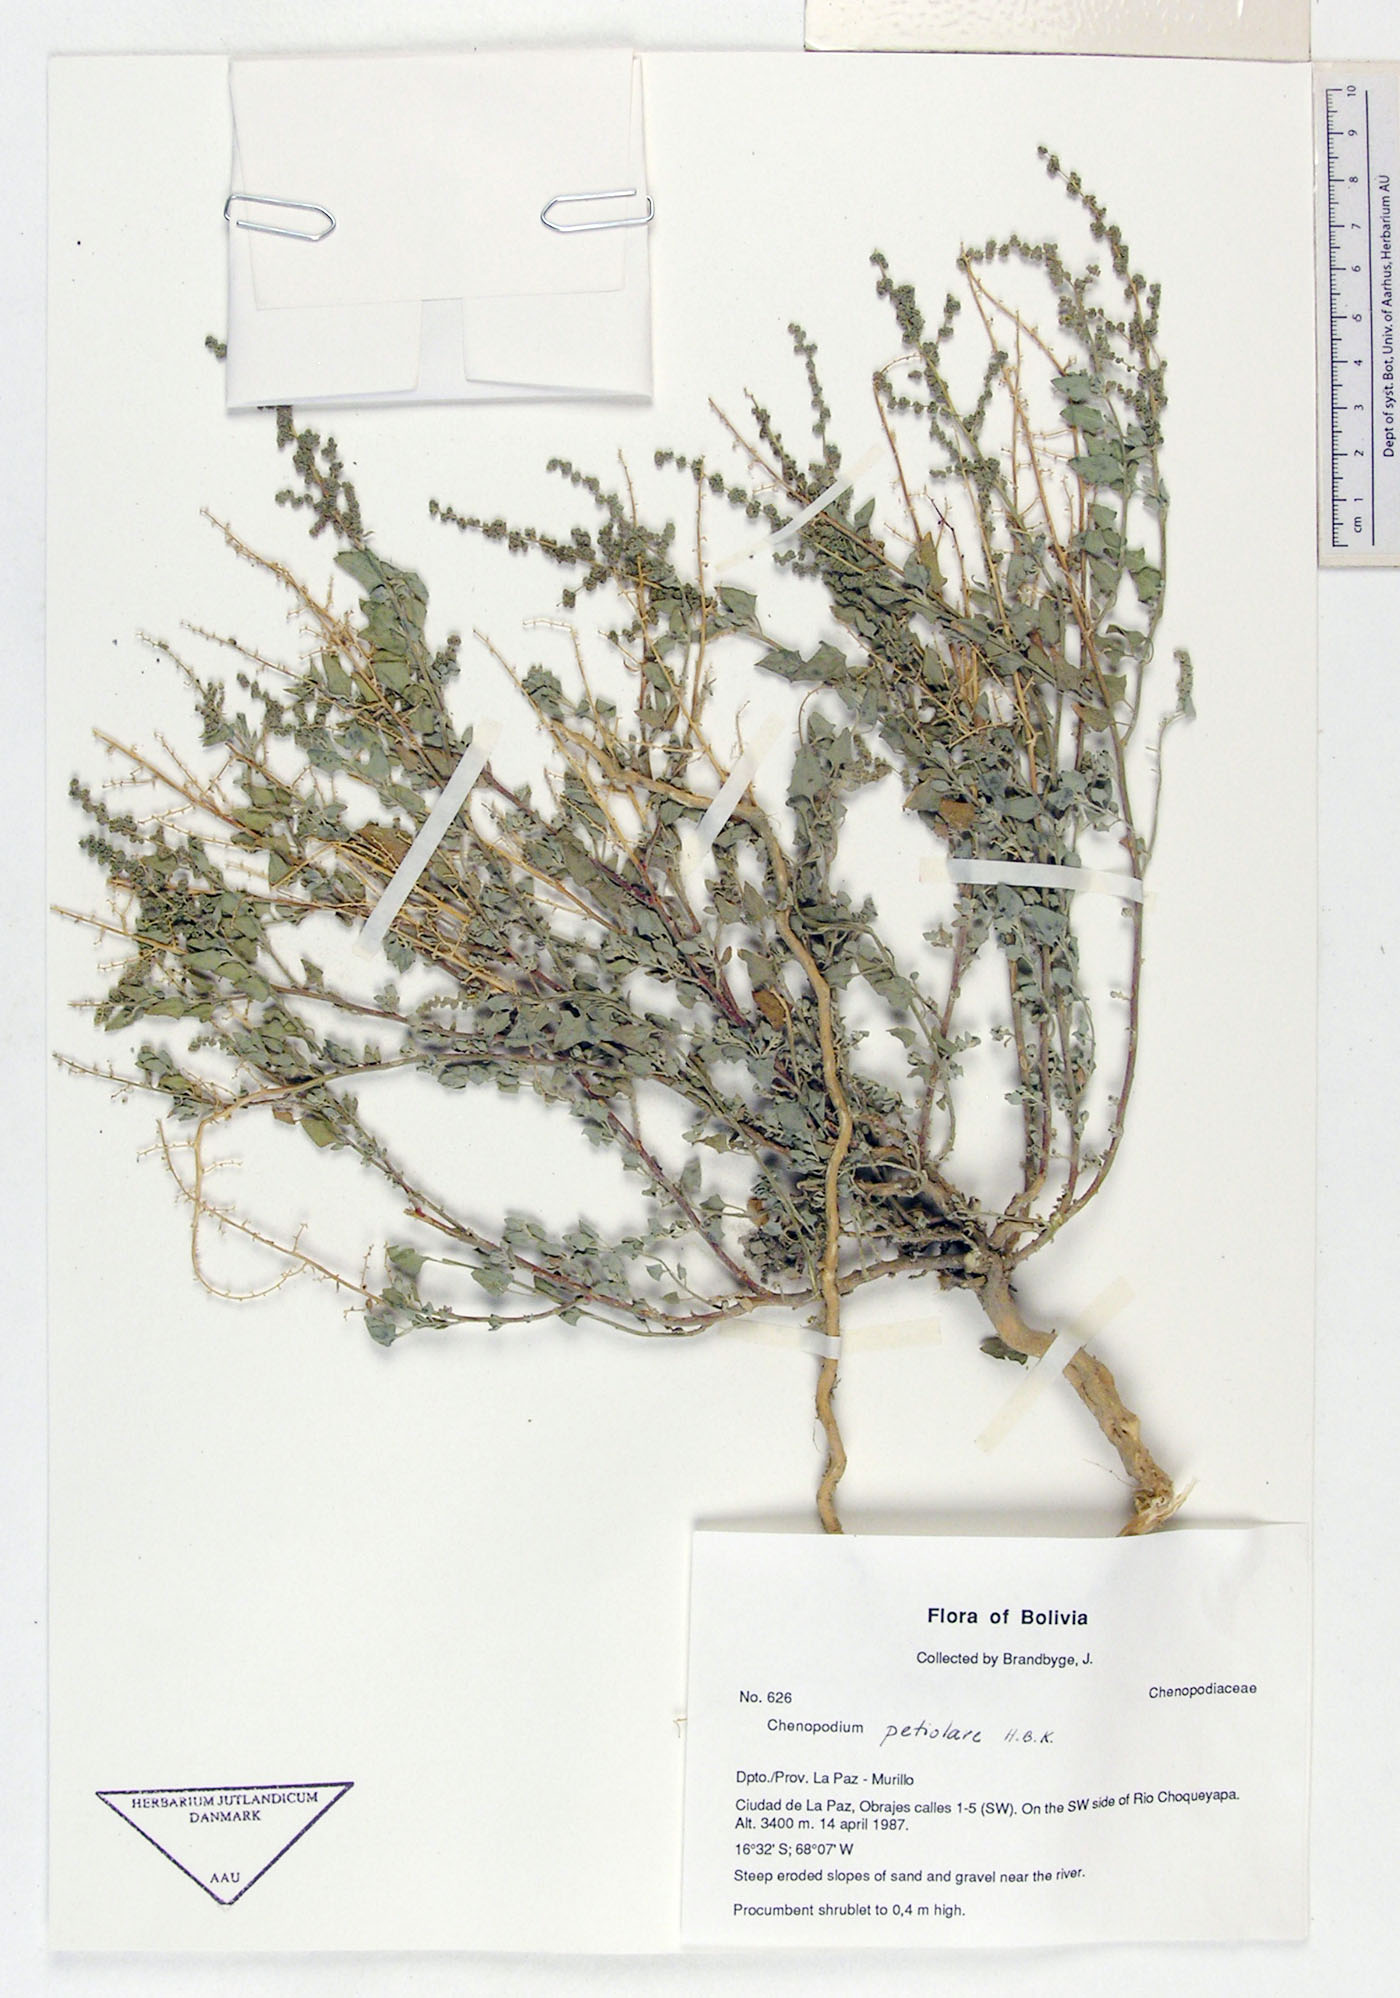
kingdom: Plantae
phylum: Tracheophyta
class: Magnoliopsida
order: Caryophyllales
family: Amaranthaceae
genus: Chenopodium
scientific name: Chenopodium petiolare
